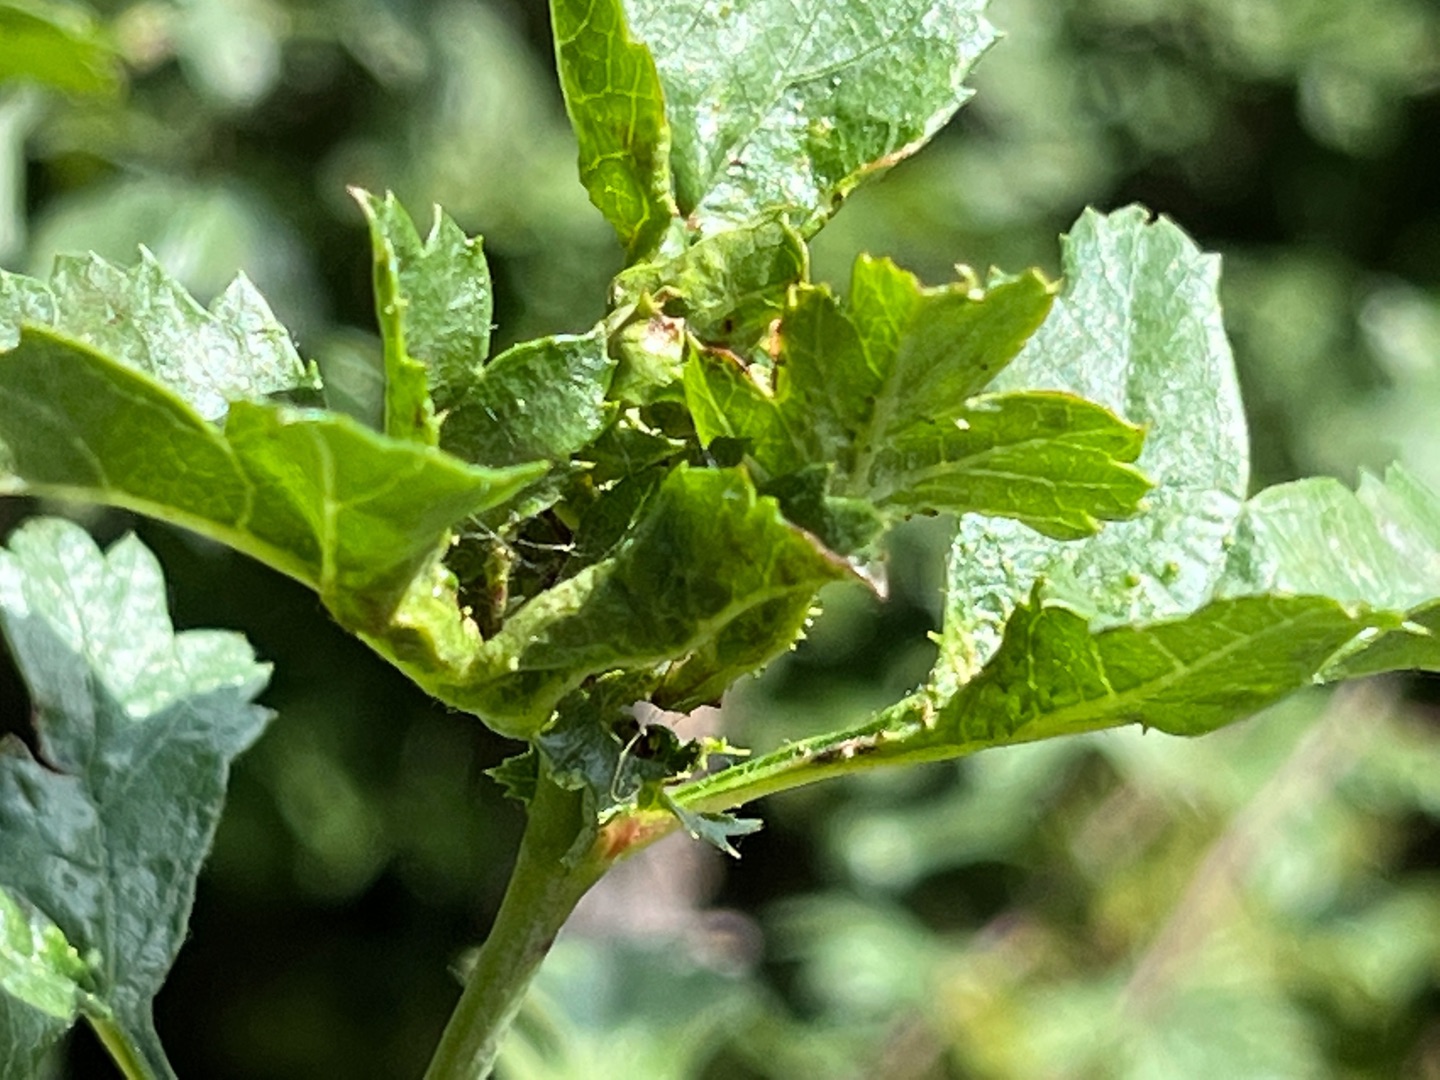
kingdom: Animalia
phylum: Arthropoda
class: Insecta
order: Diptera
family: Cecidomyiidae
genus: Dasineura
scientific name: Dasineura crataegi
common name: Tjørnerosetgalmyg
